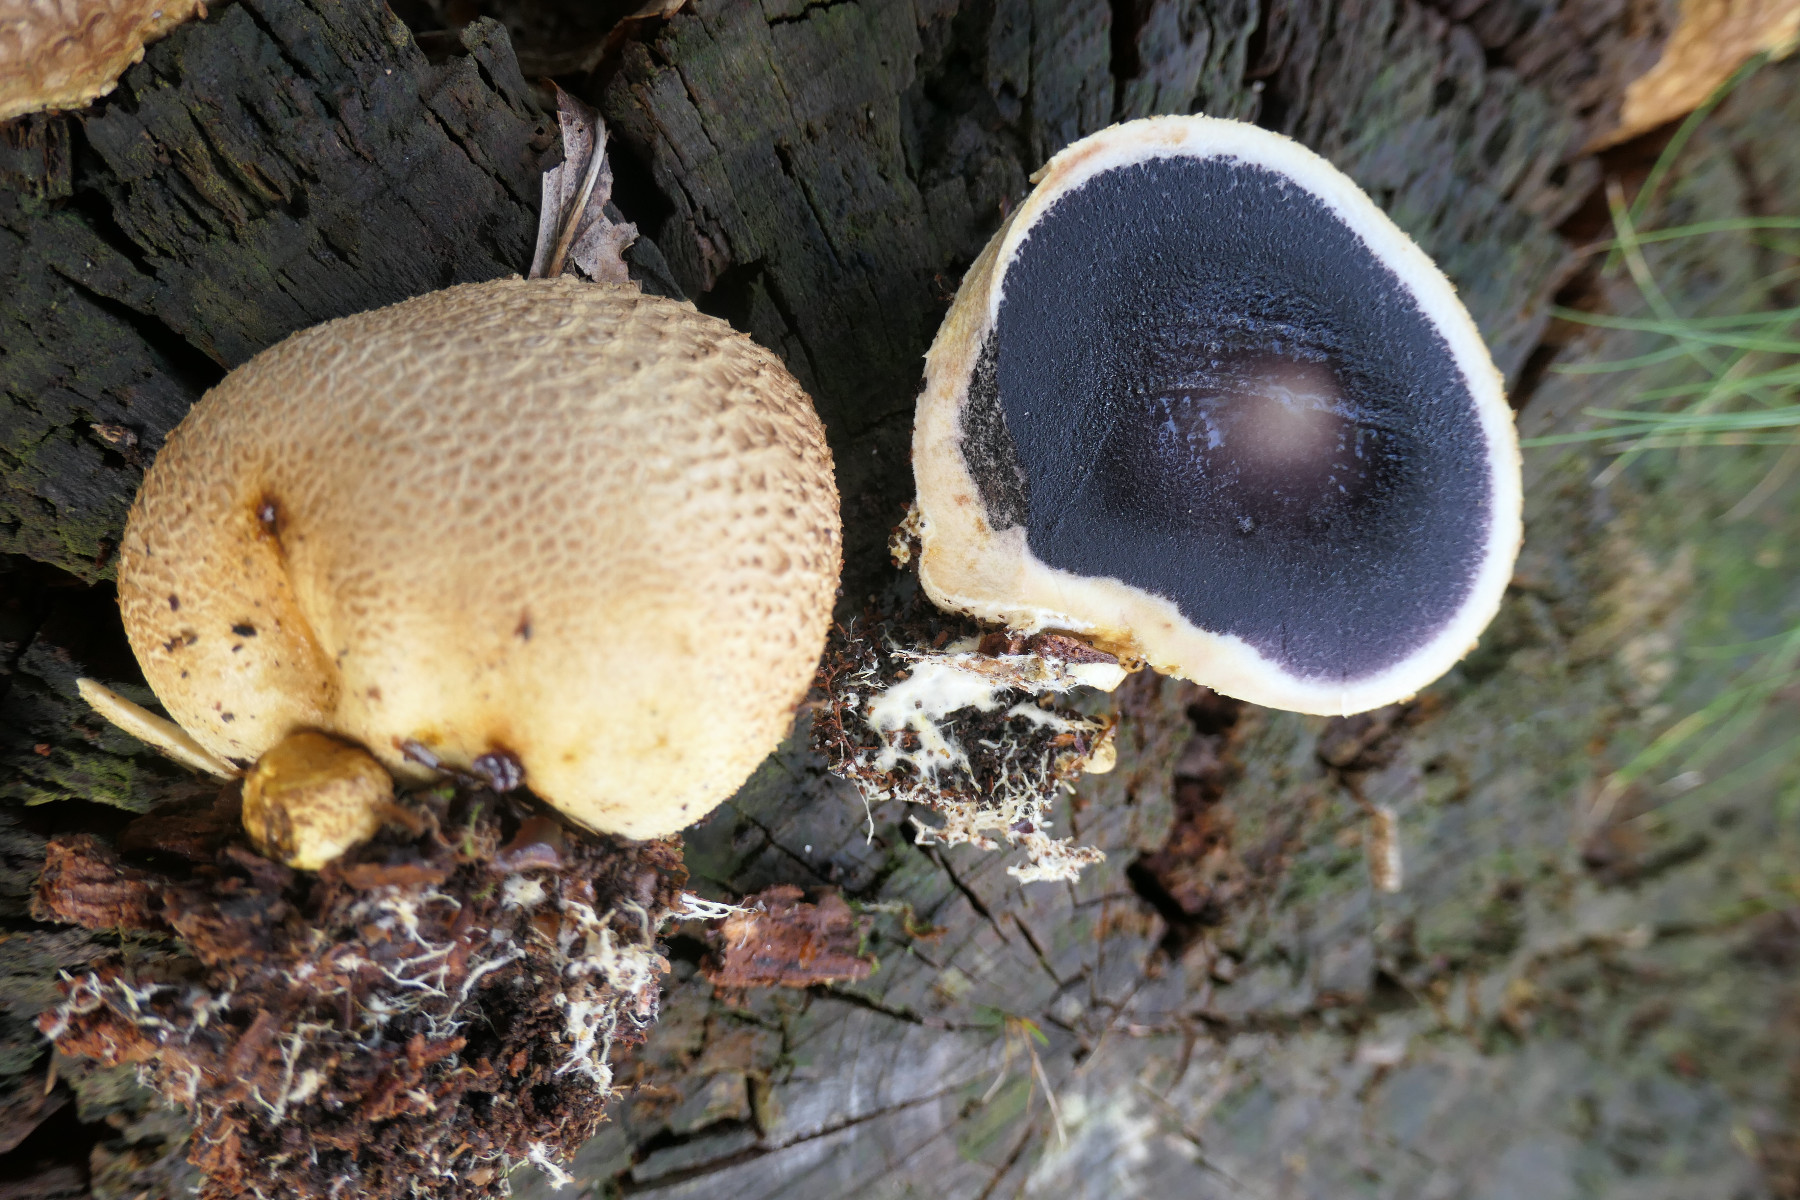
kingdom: Fungi
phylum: Basidiomycota
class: Agaricomycetes
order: Boletales
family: Sclerodermataceae
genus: Scleroderma
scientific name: Scleroderma citrinum
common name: almindelig bruskbold
